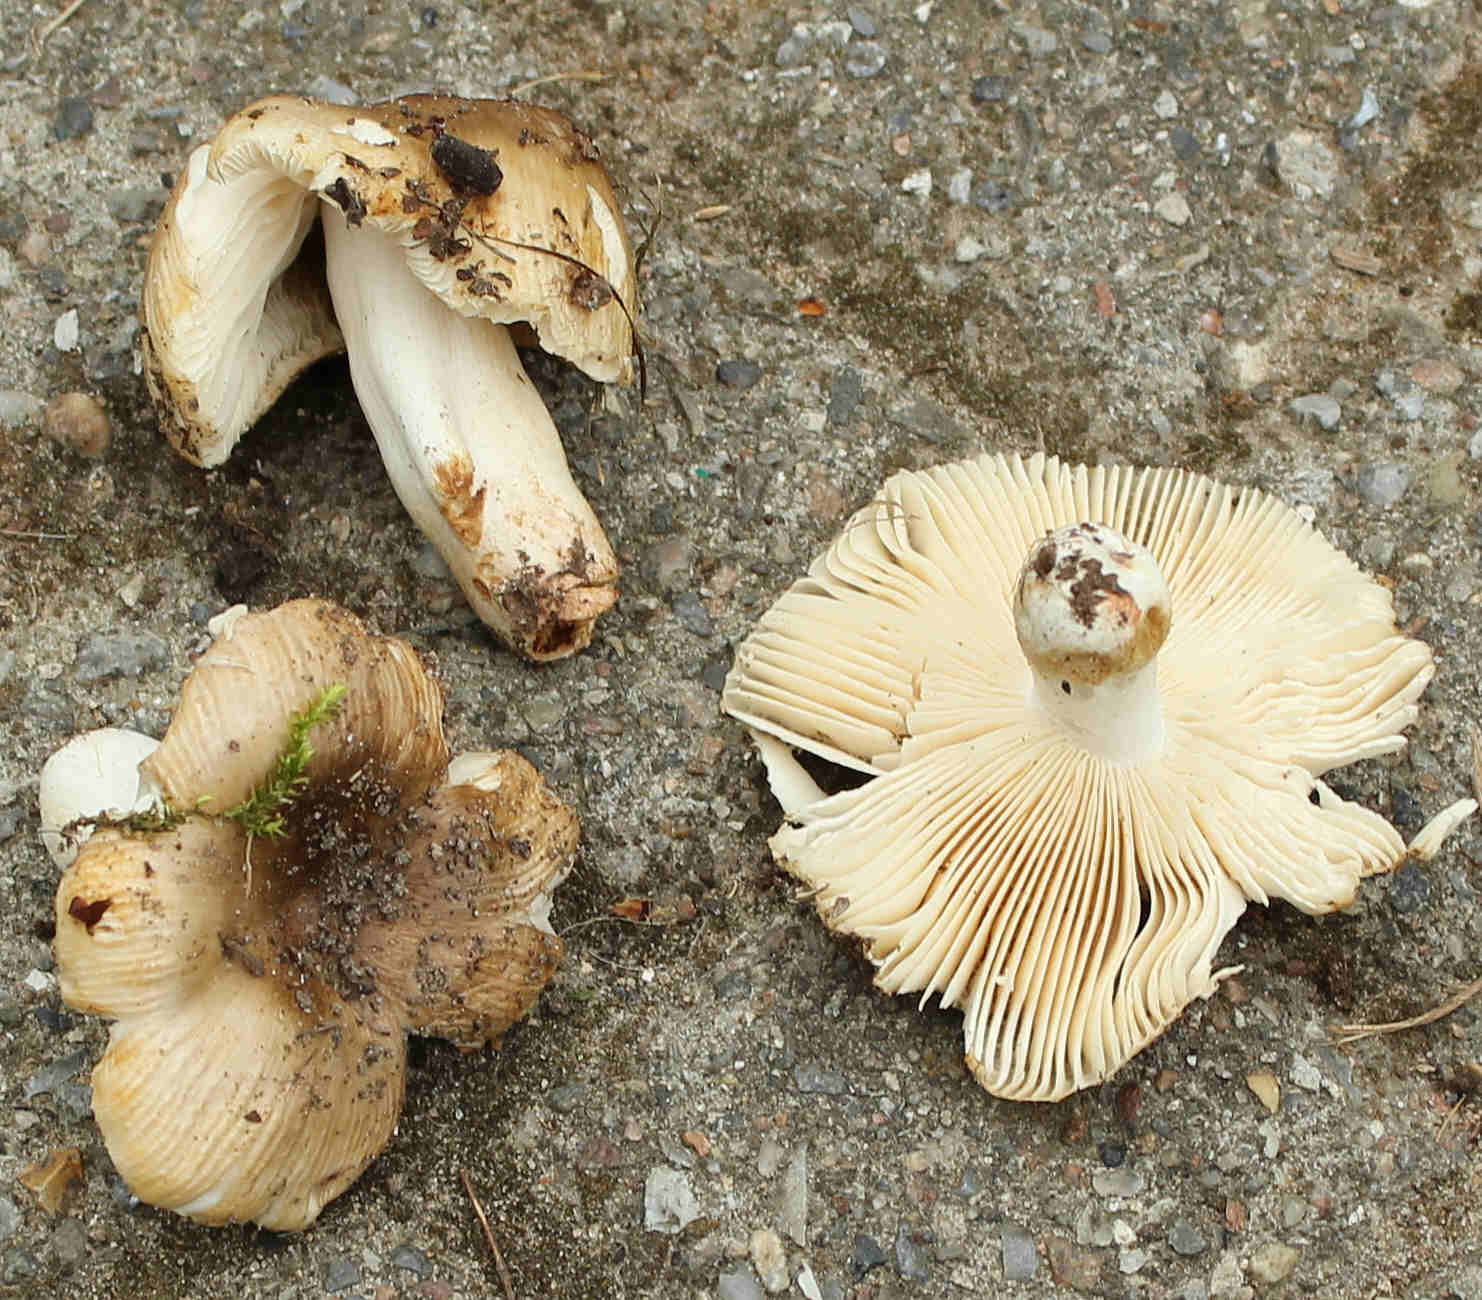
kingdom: Fungi
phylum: Basidiomycota
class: Agaricomycetes
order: Russulales
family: Russulaceae
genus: Russula
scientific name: Russula recondita
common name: mild kam-skørhat
